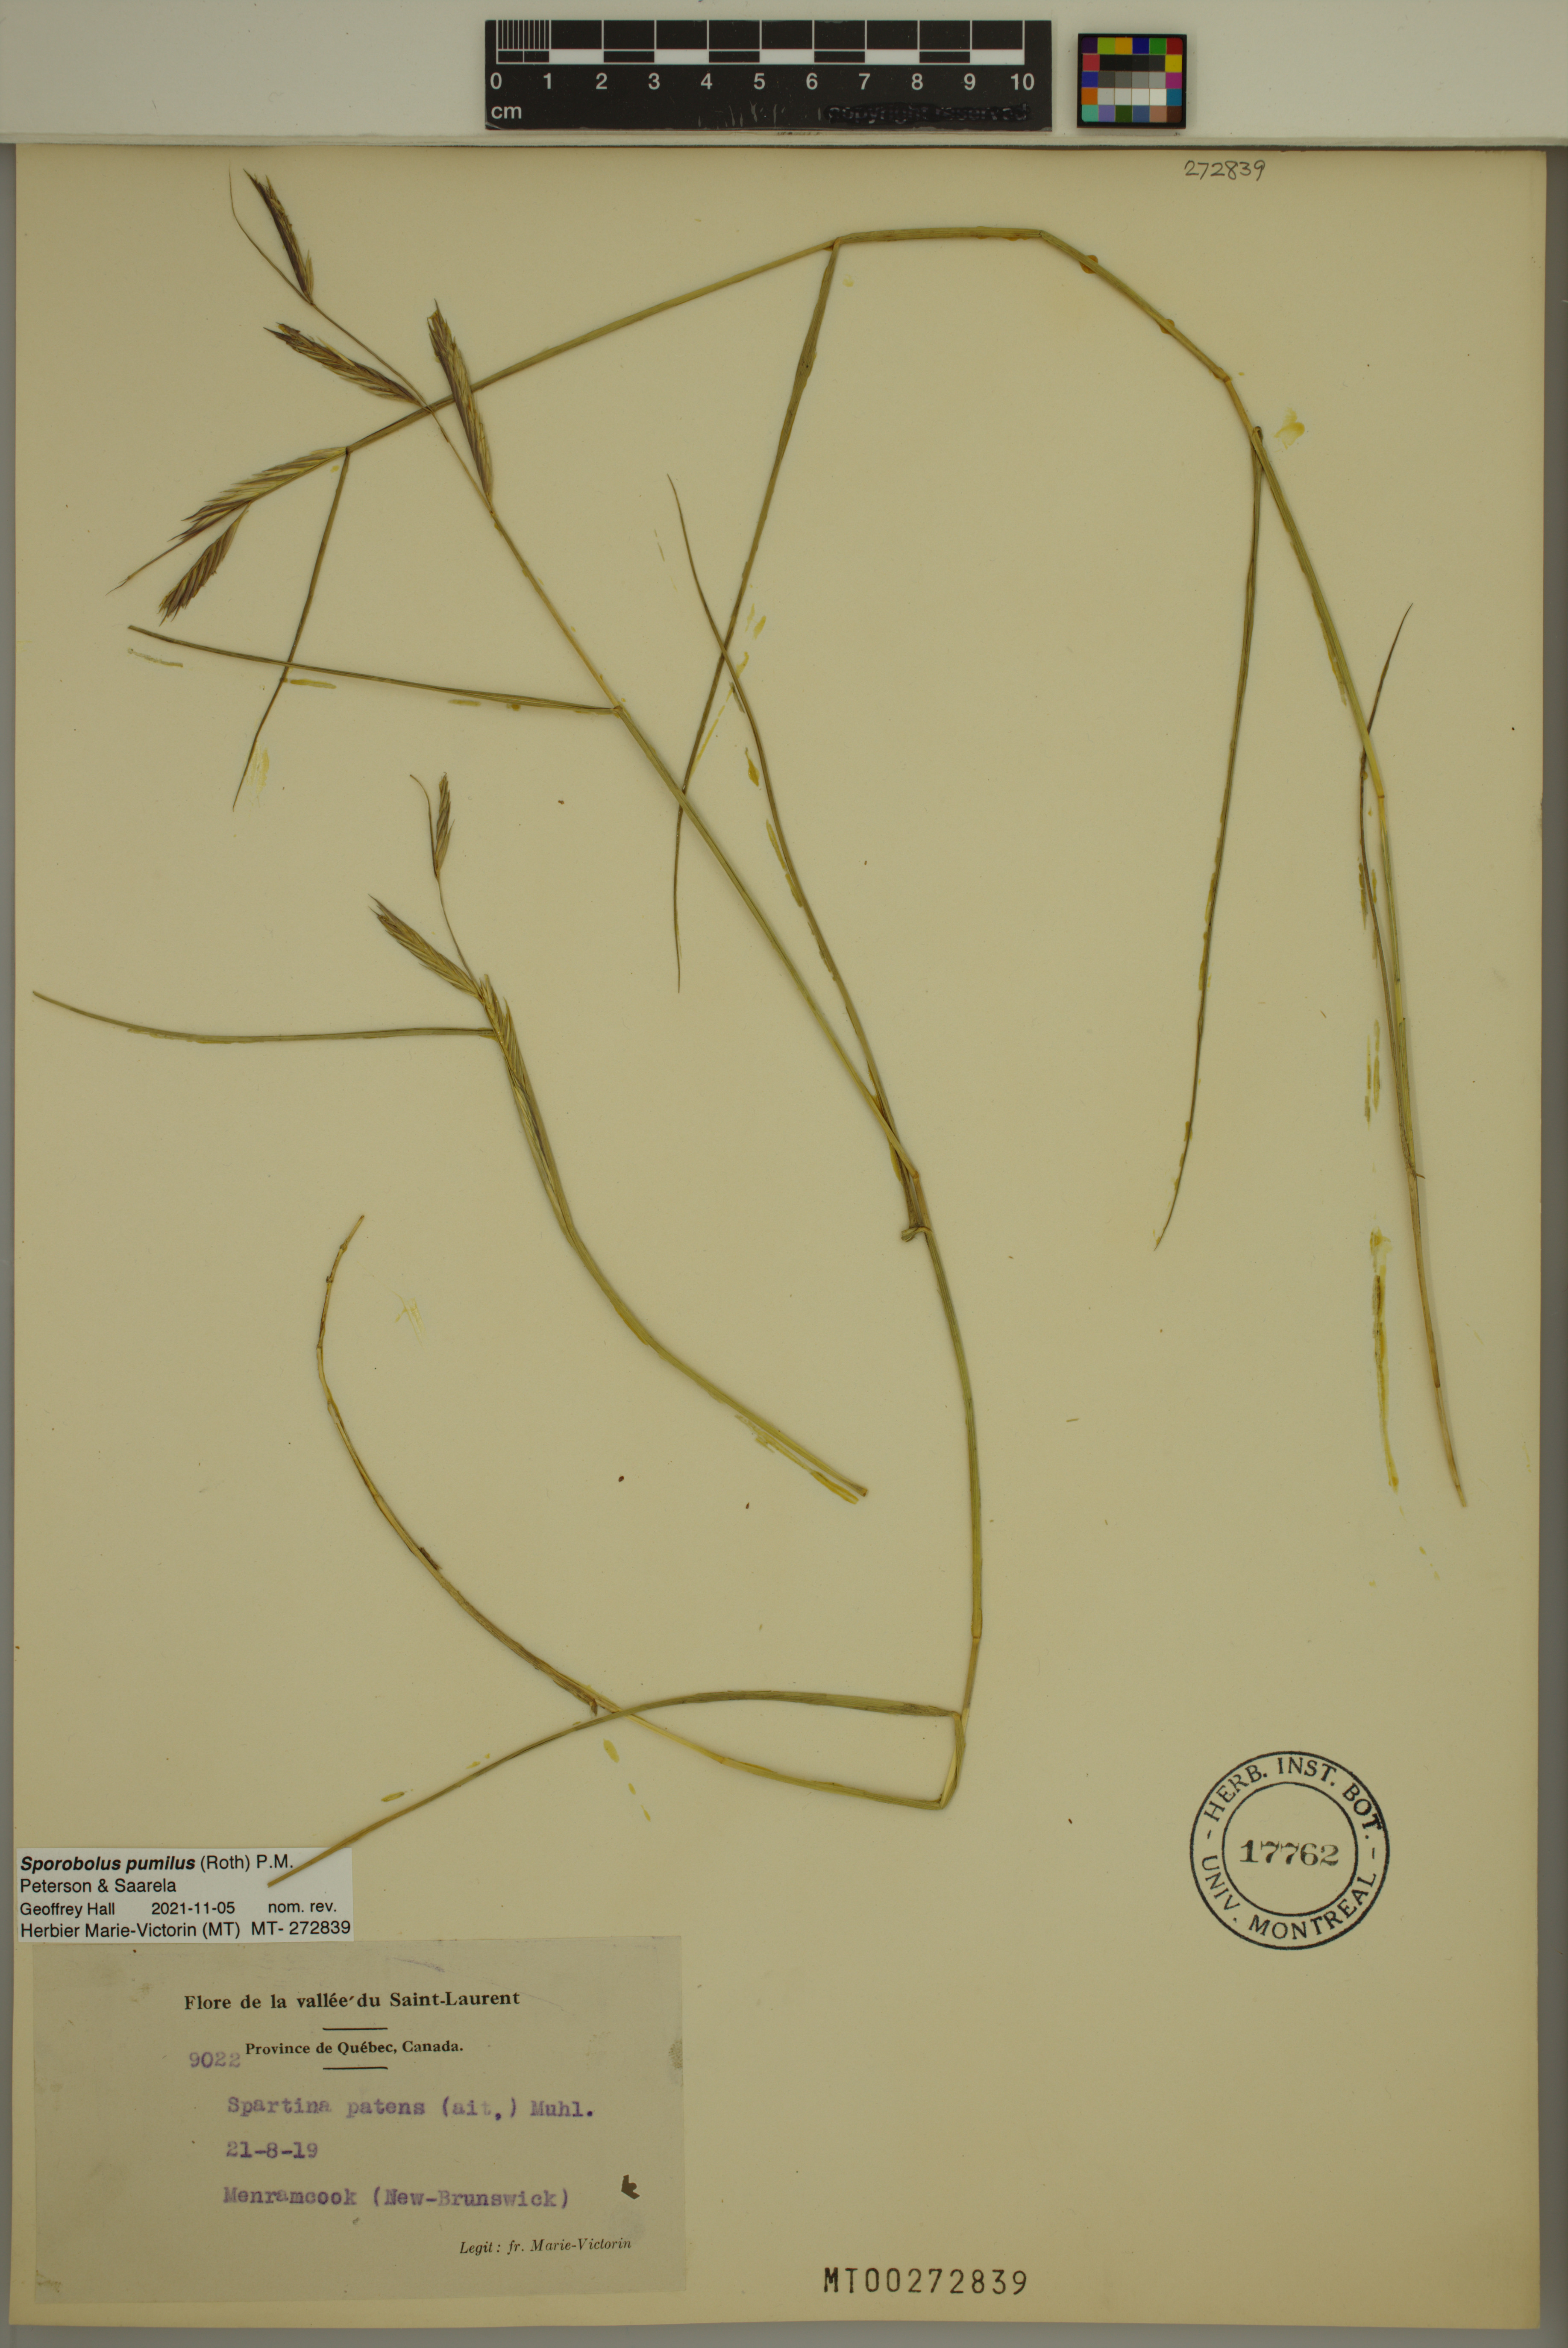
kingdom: Plantae
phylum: Tracheophyta
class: Liliopsida
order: Poales
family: Poaceae
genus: Sporobolus
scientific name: Sporobolus pumilus
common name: Highwater grass
